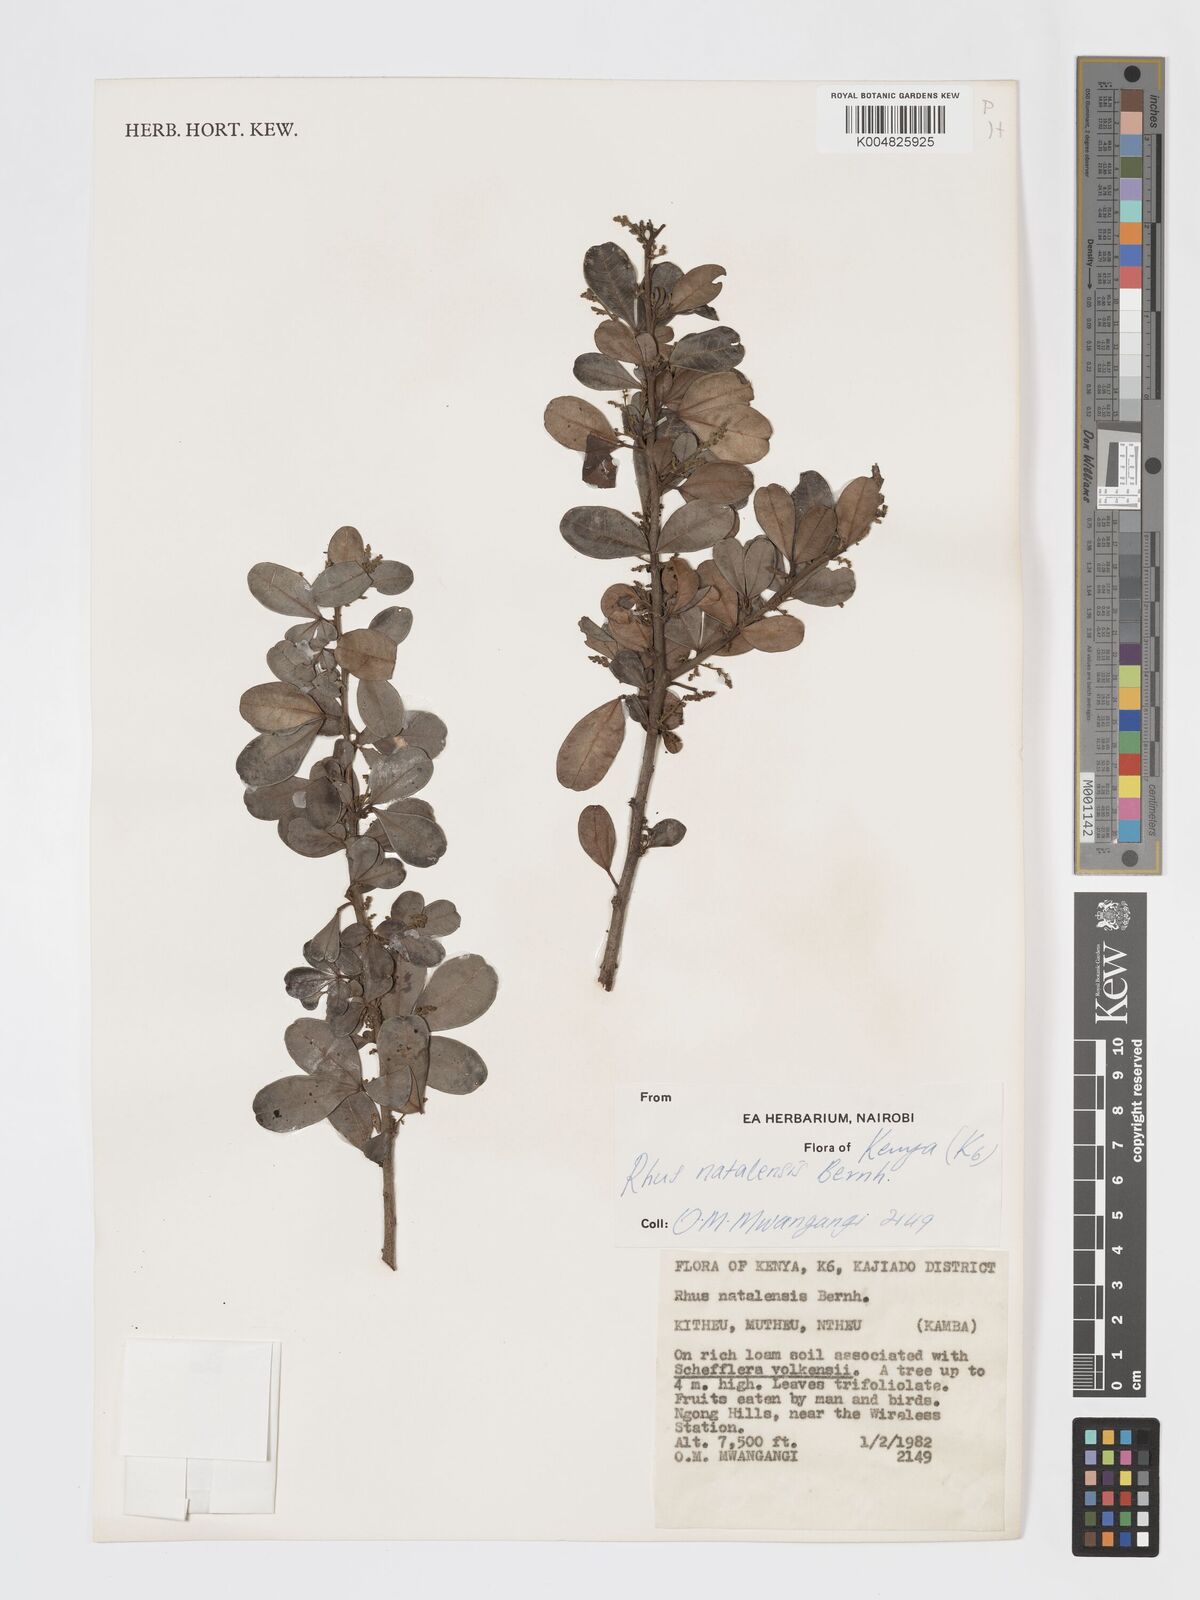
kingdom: Plantae
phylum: Tracheophyta
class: Magnoliopsida
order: Sapindales
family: Anacardiaceae
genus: Searsia
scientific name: Searsia natalensis
